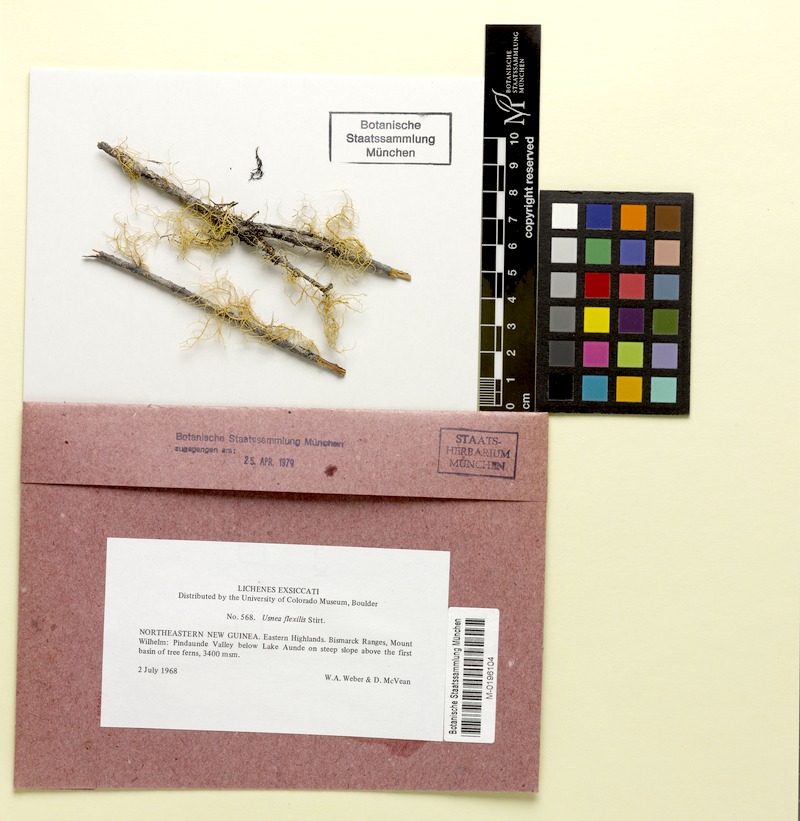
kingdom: Fungi
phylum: Ascomycota
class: Lecanoromycetes
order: Lecanorales
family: Parmeliaceae
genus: Usnea
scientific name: Usnea flexilis
